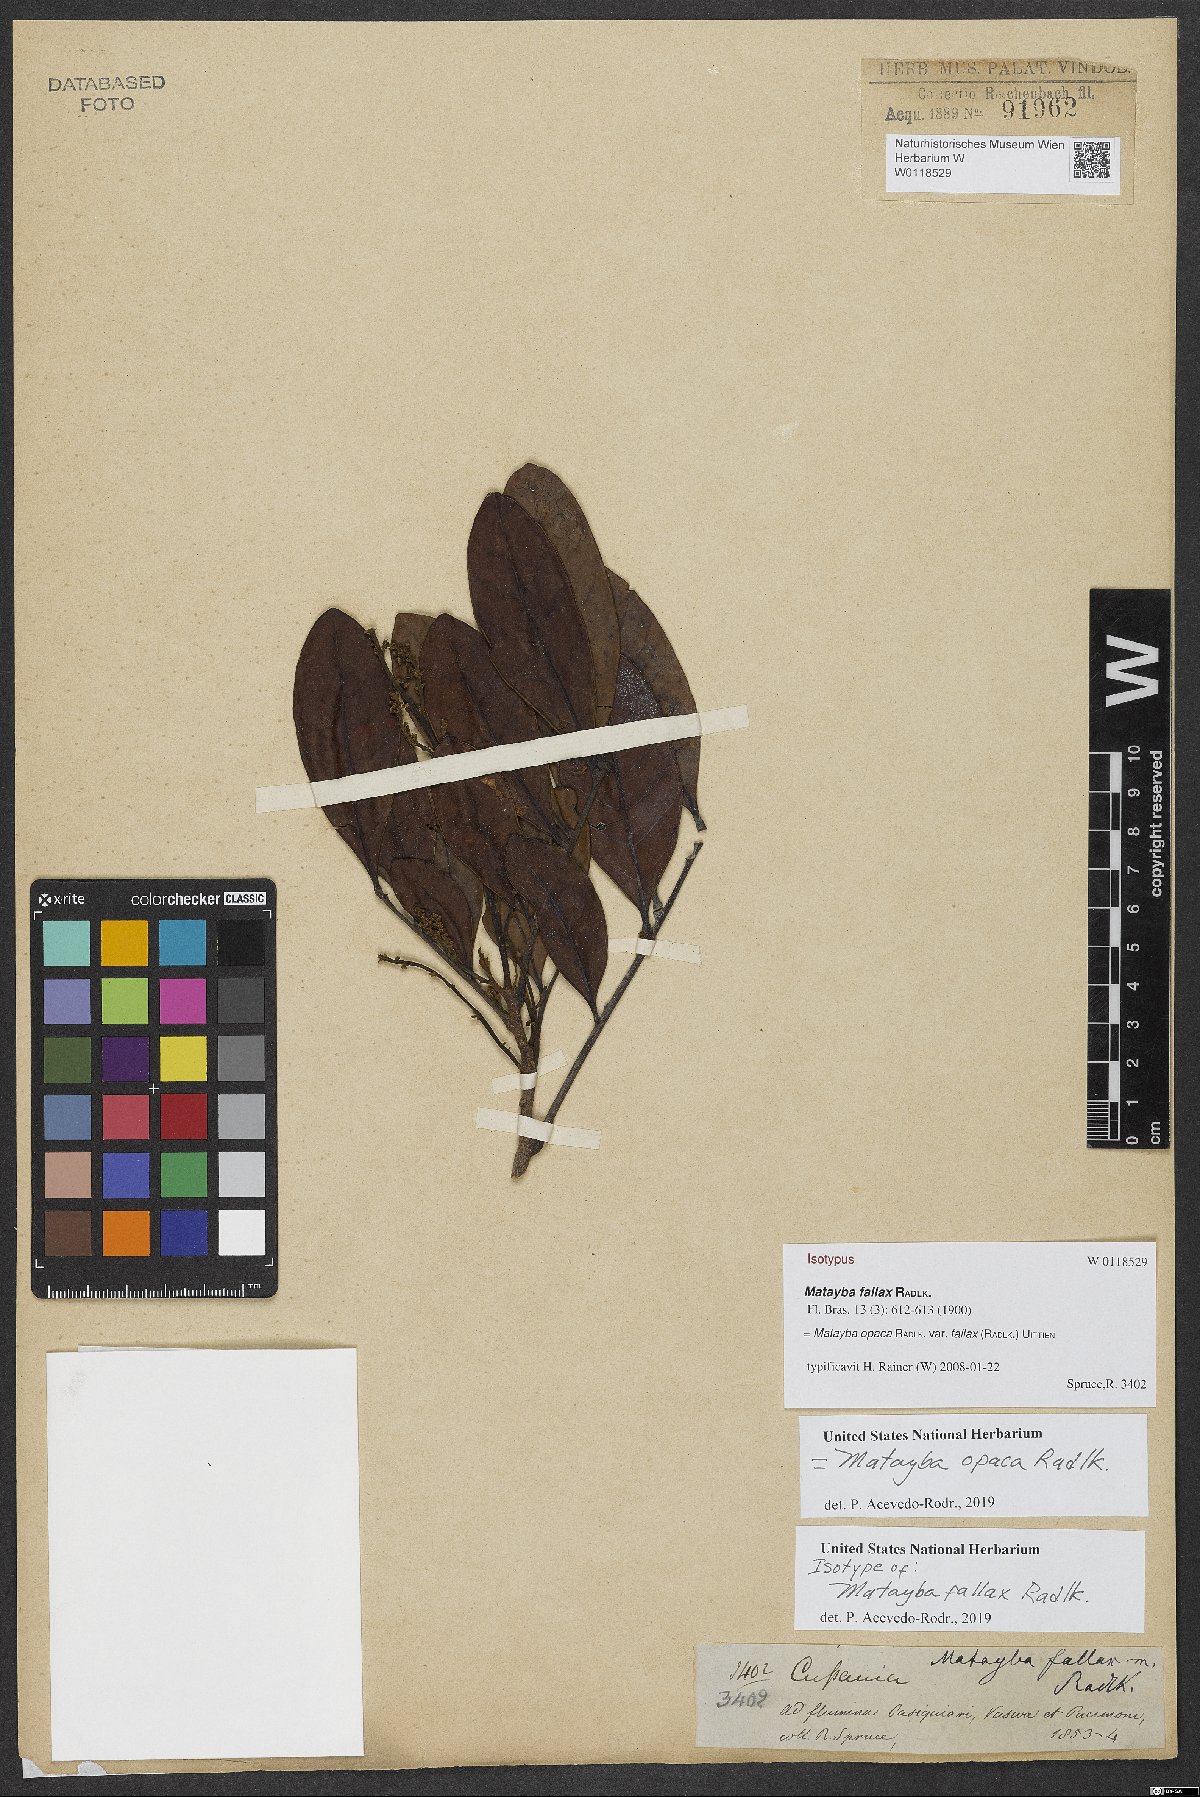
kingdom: Plantae
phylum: Tracheophyta
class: Magnoliopsida
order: Sapindales
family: Sapindaceae
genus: Matayba
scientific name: Matayba opaca
